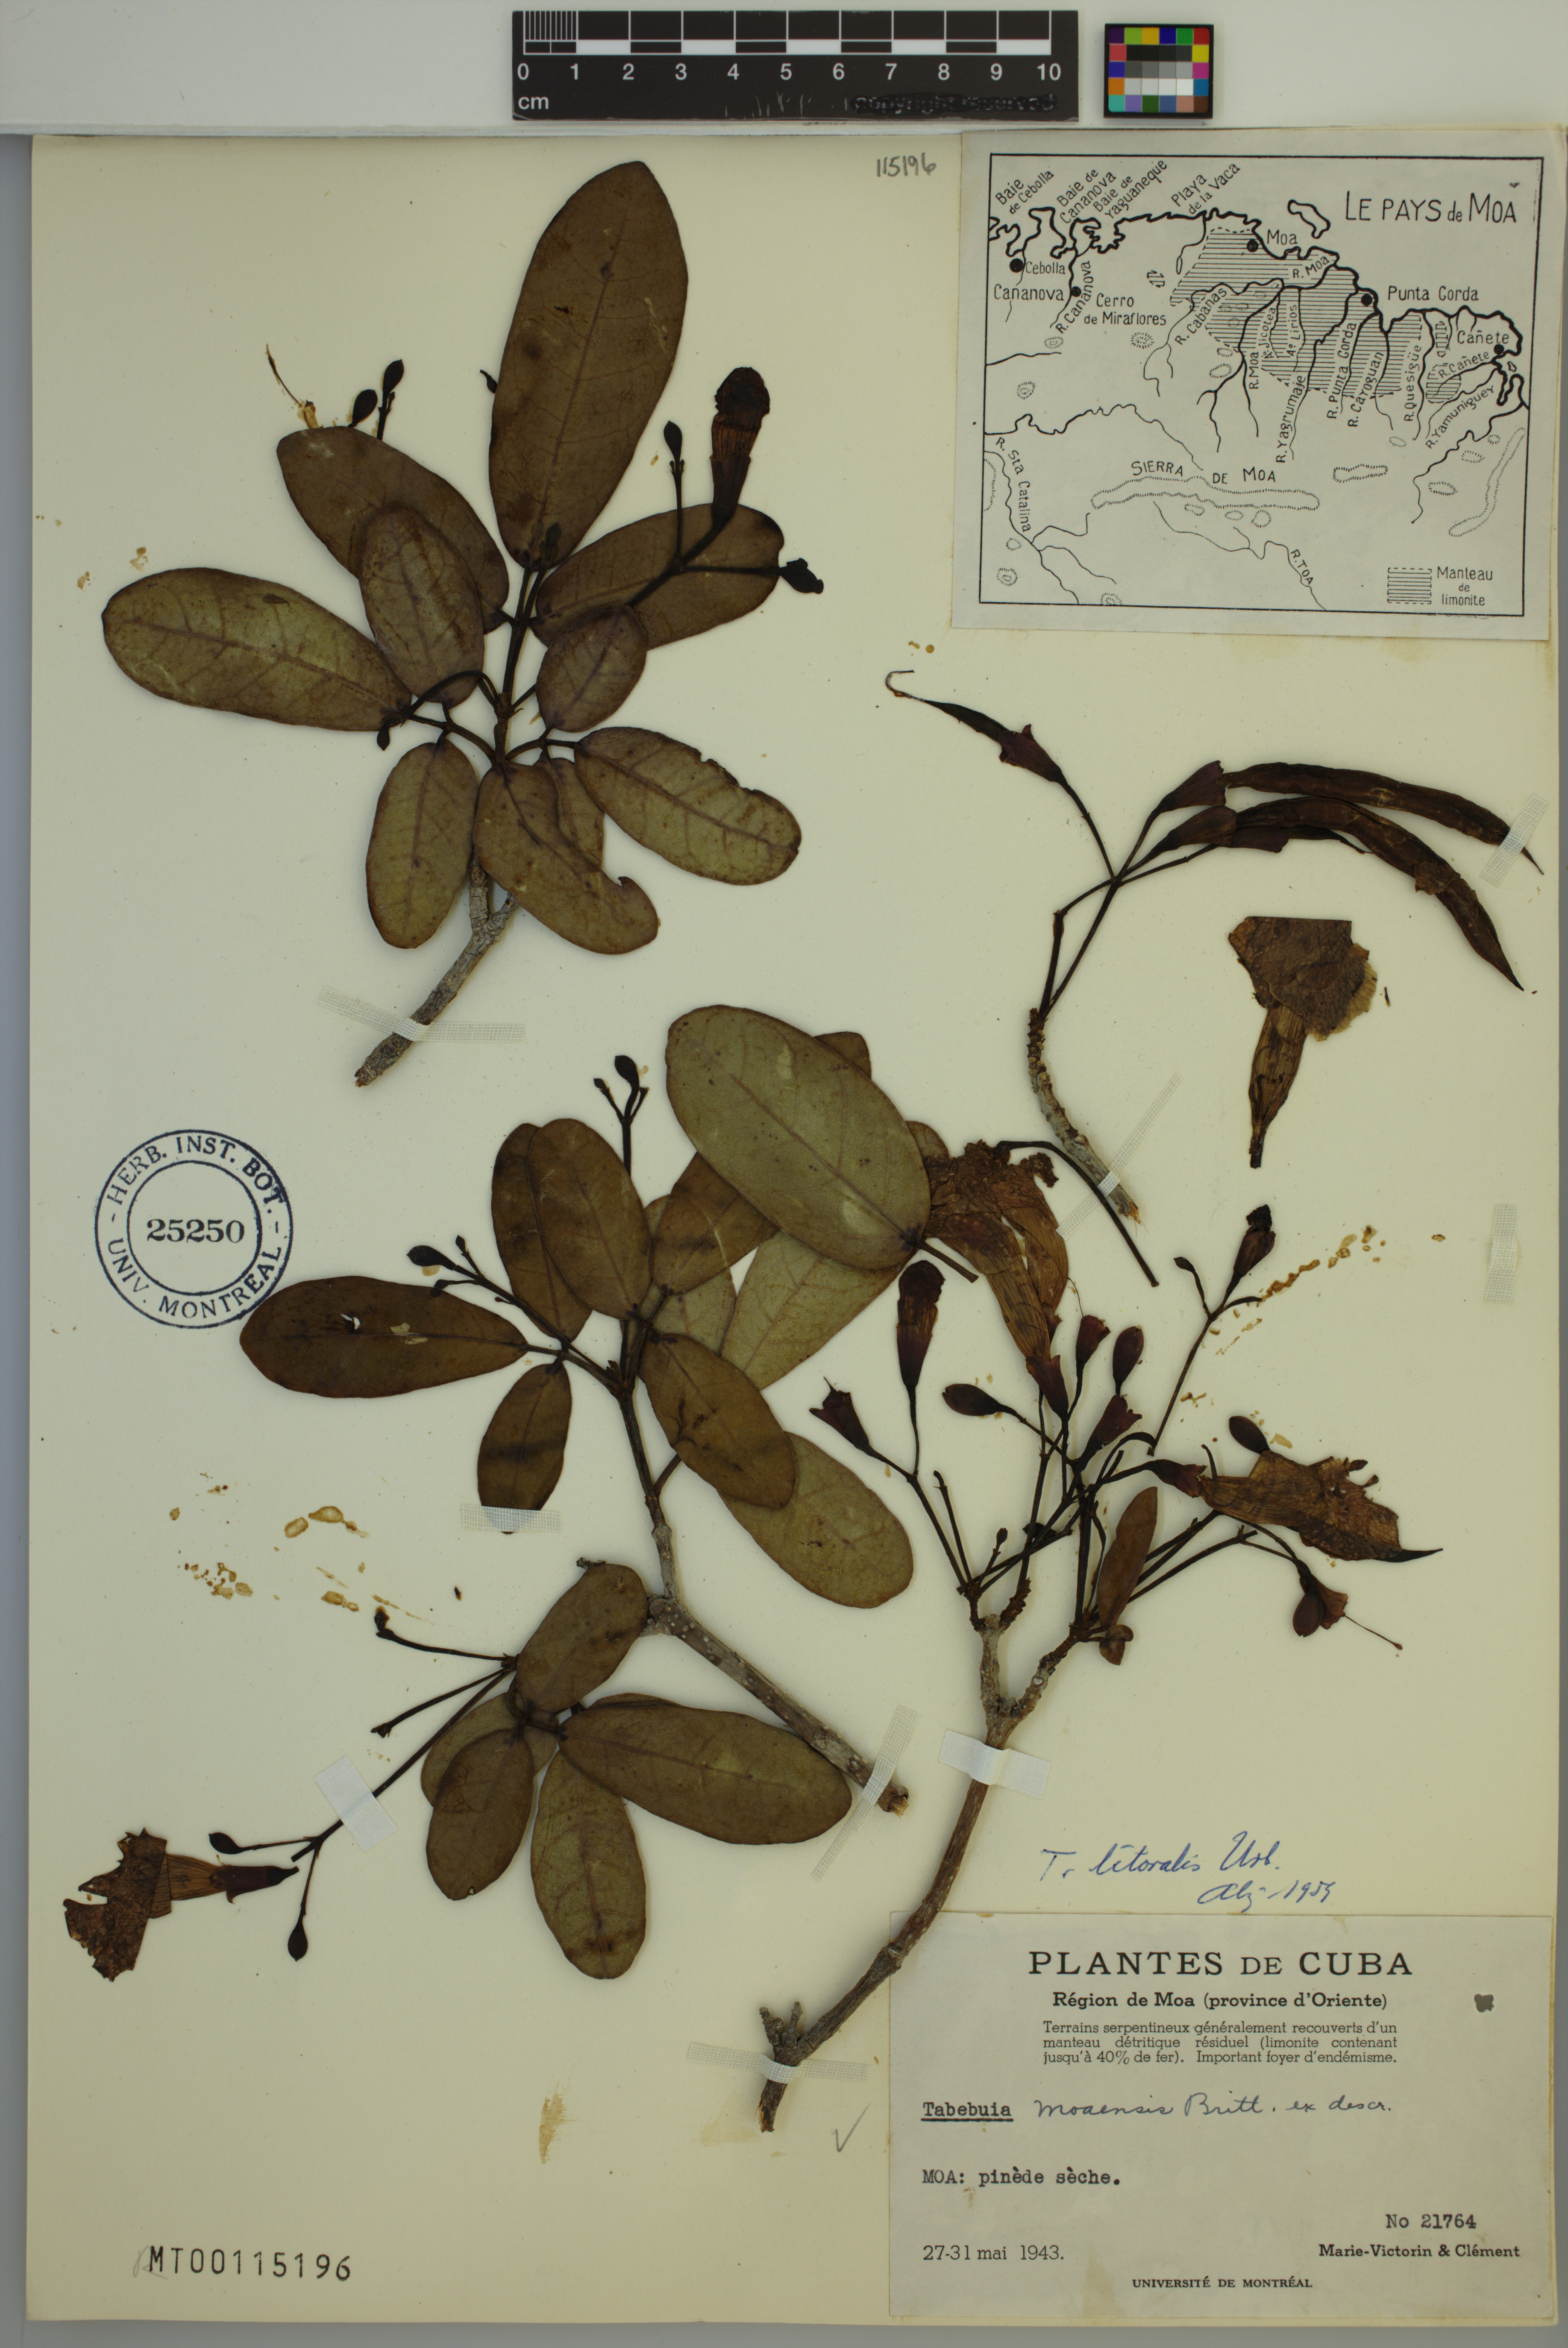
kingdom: Plantae
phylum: Tracheophyta
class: Magnoliopsida
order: Lamiales
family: Bignoniaceae
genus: Tabebuia
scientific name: Tabebuia moaensis
